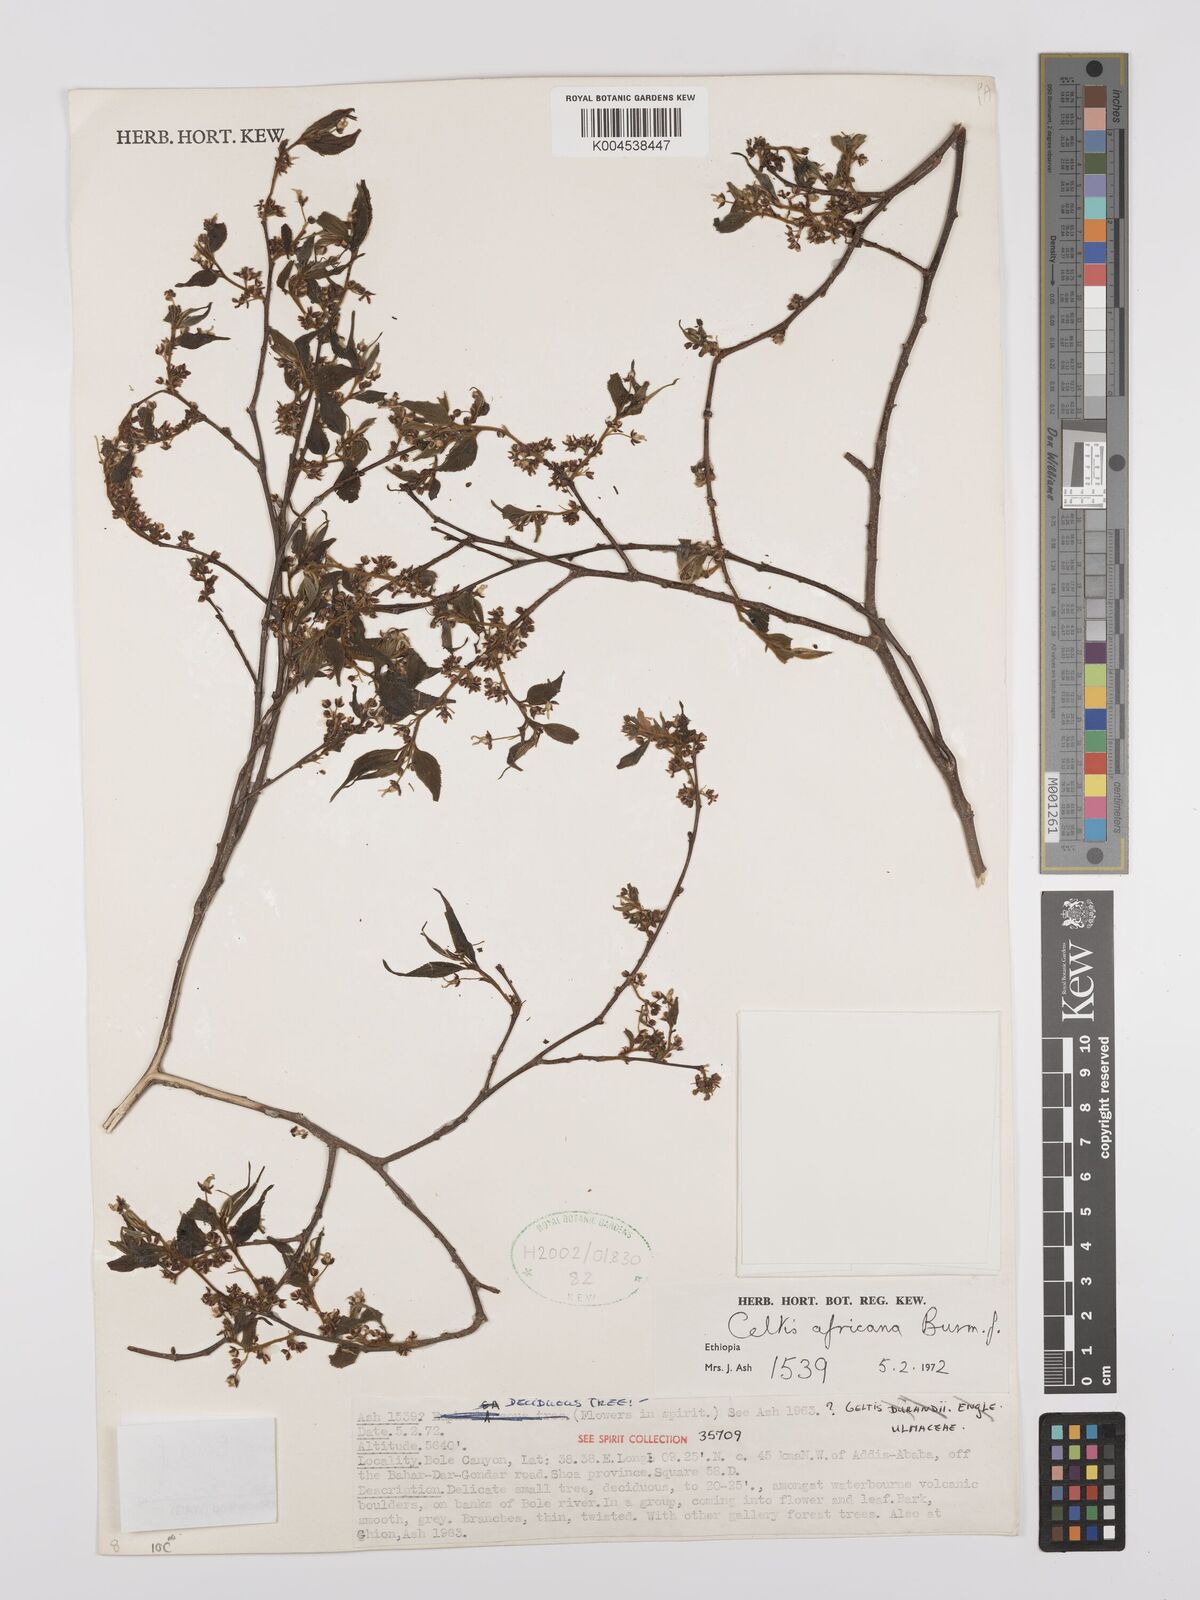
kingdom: Plantae
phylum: Tracheophyta
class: Magnoliopsida
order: Rosales
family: Cannabaceae
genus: Celtis
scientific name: Celtis africana
